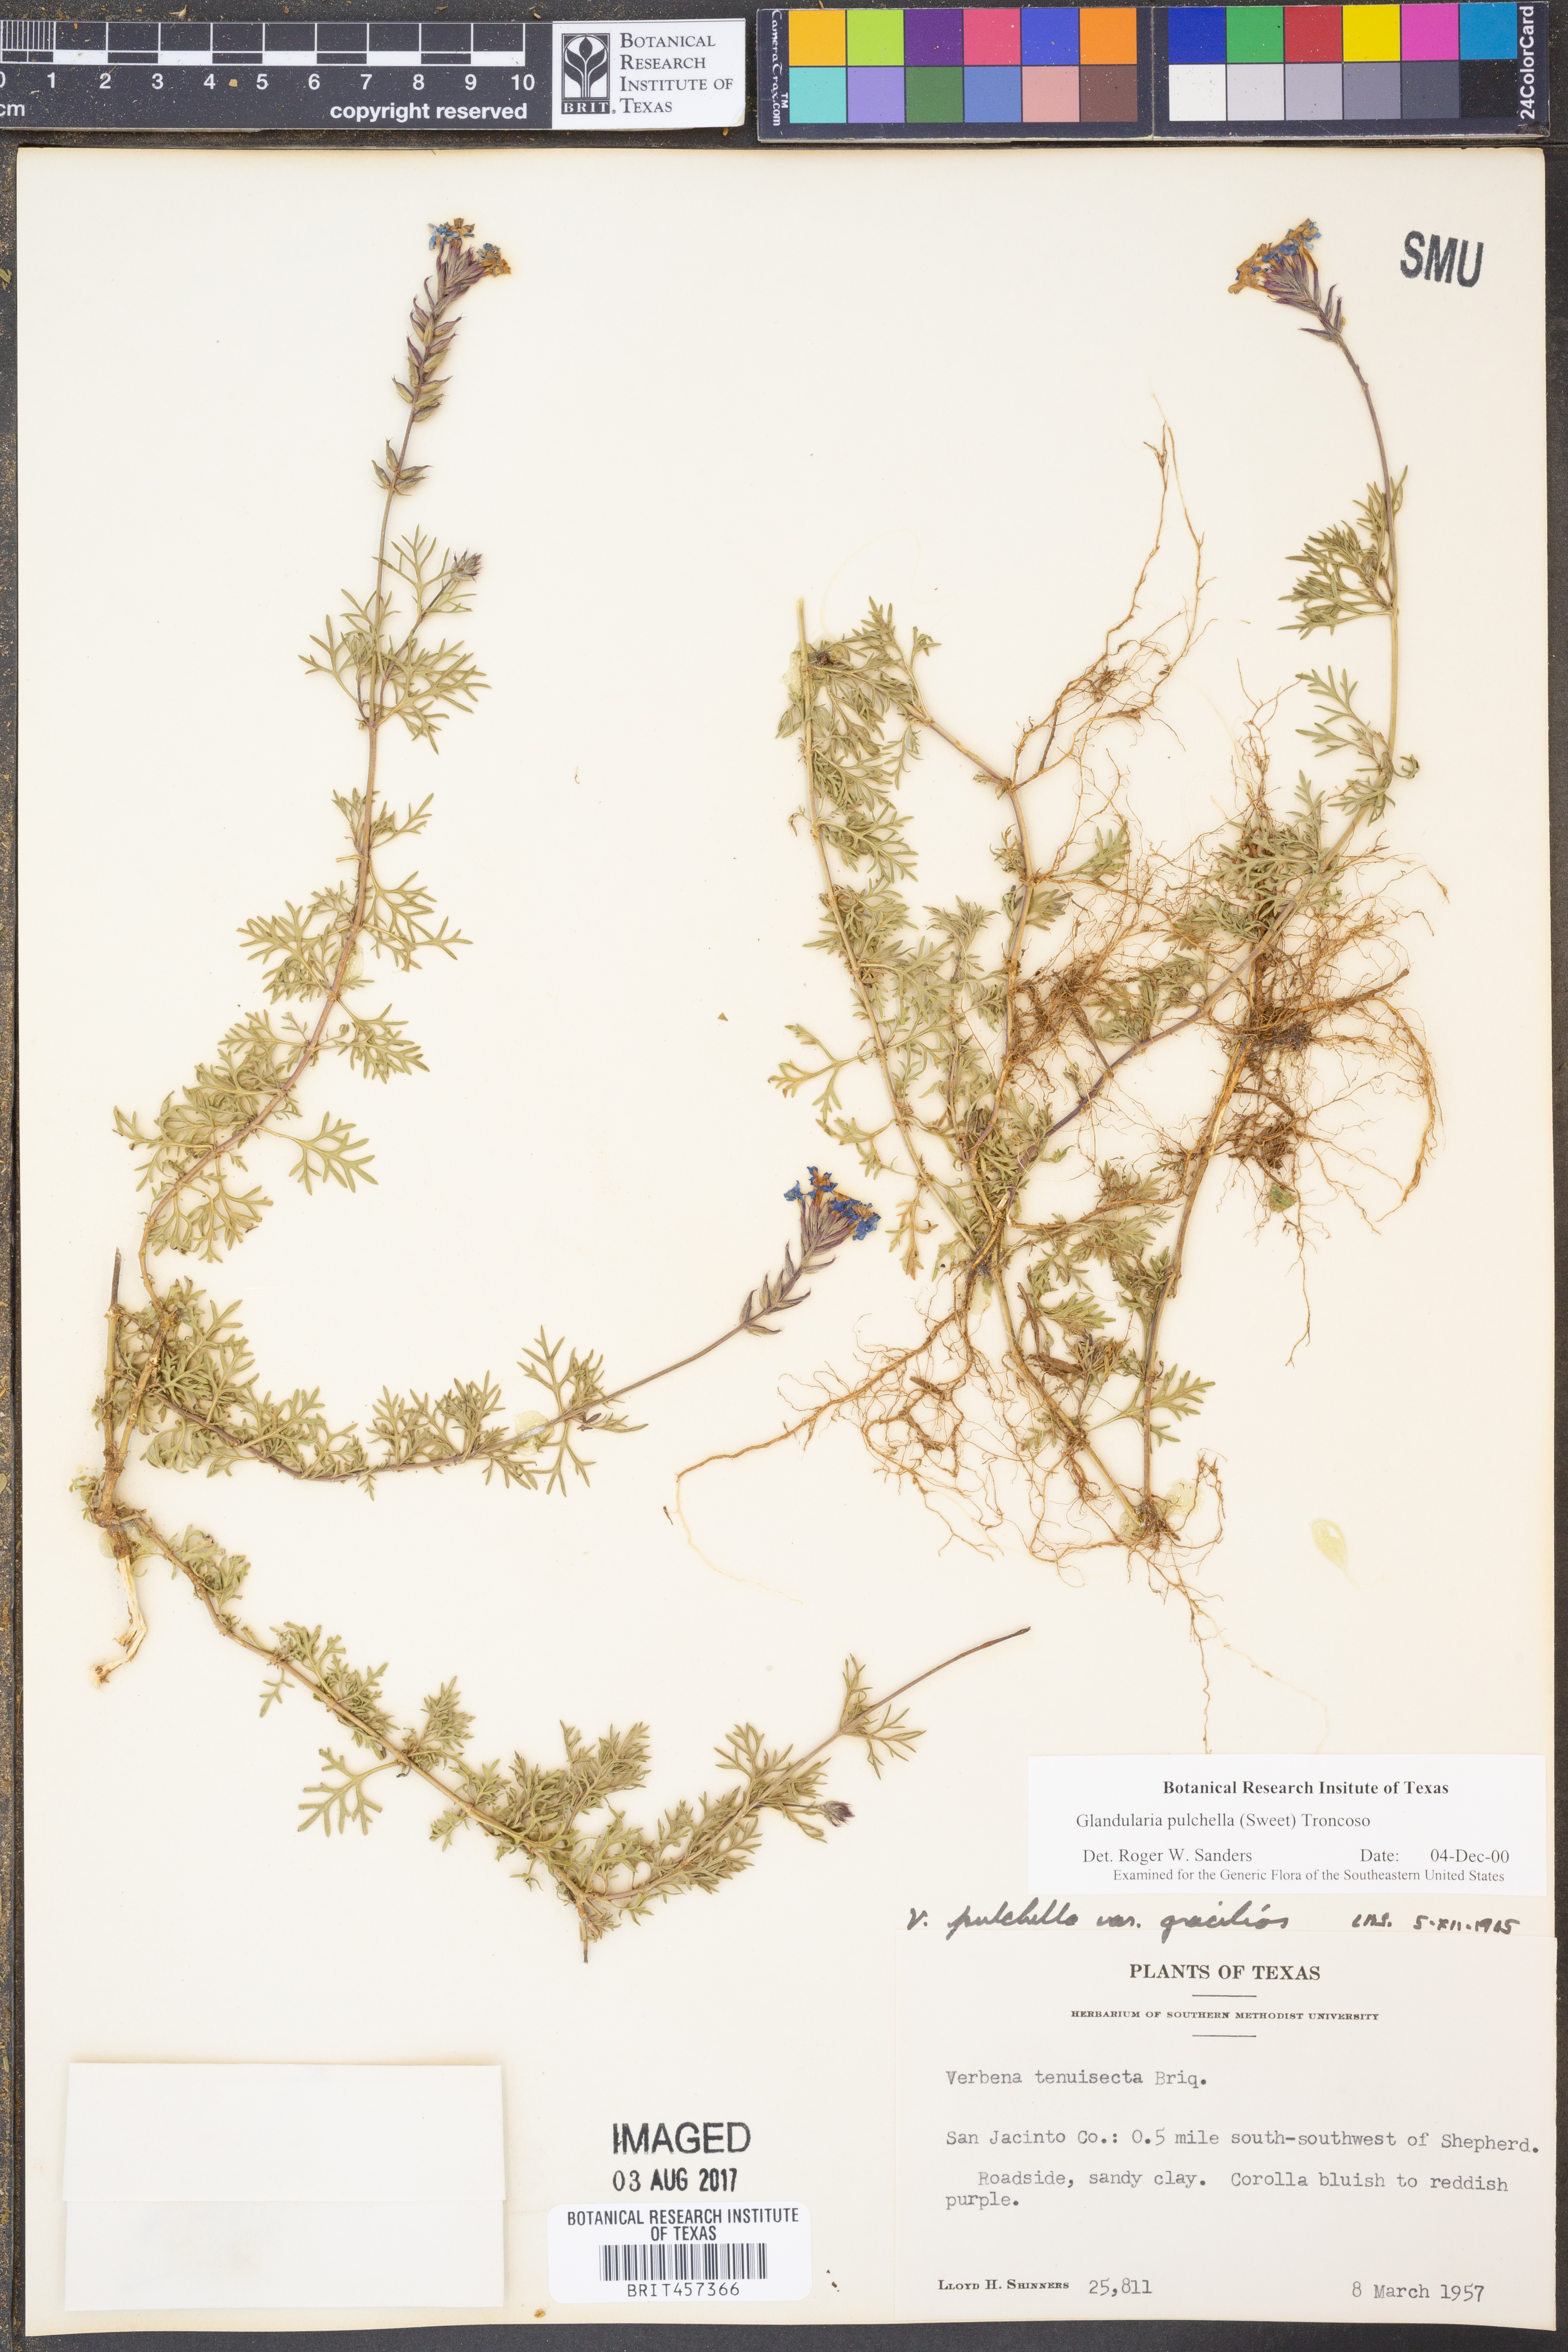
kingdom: Plantae
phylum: Tracheophyta
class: Magnoliopsida
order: Lamiales
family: Verbenaceae
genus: Verbena
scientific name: Verbena tenera
